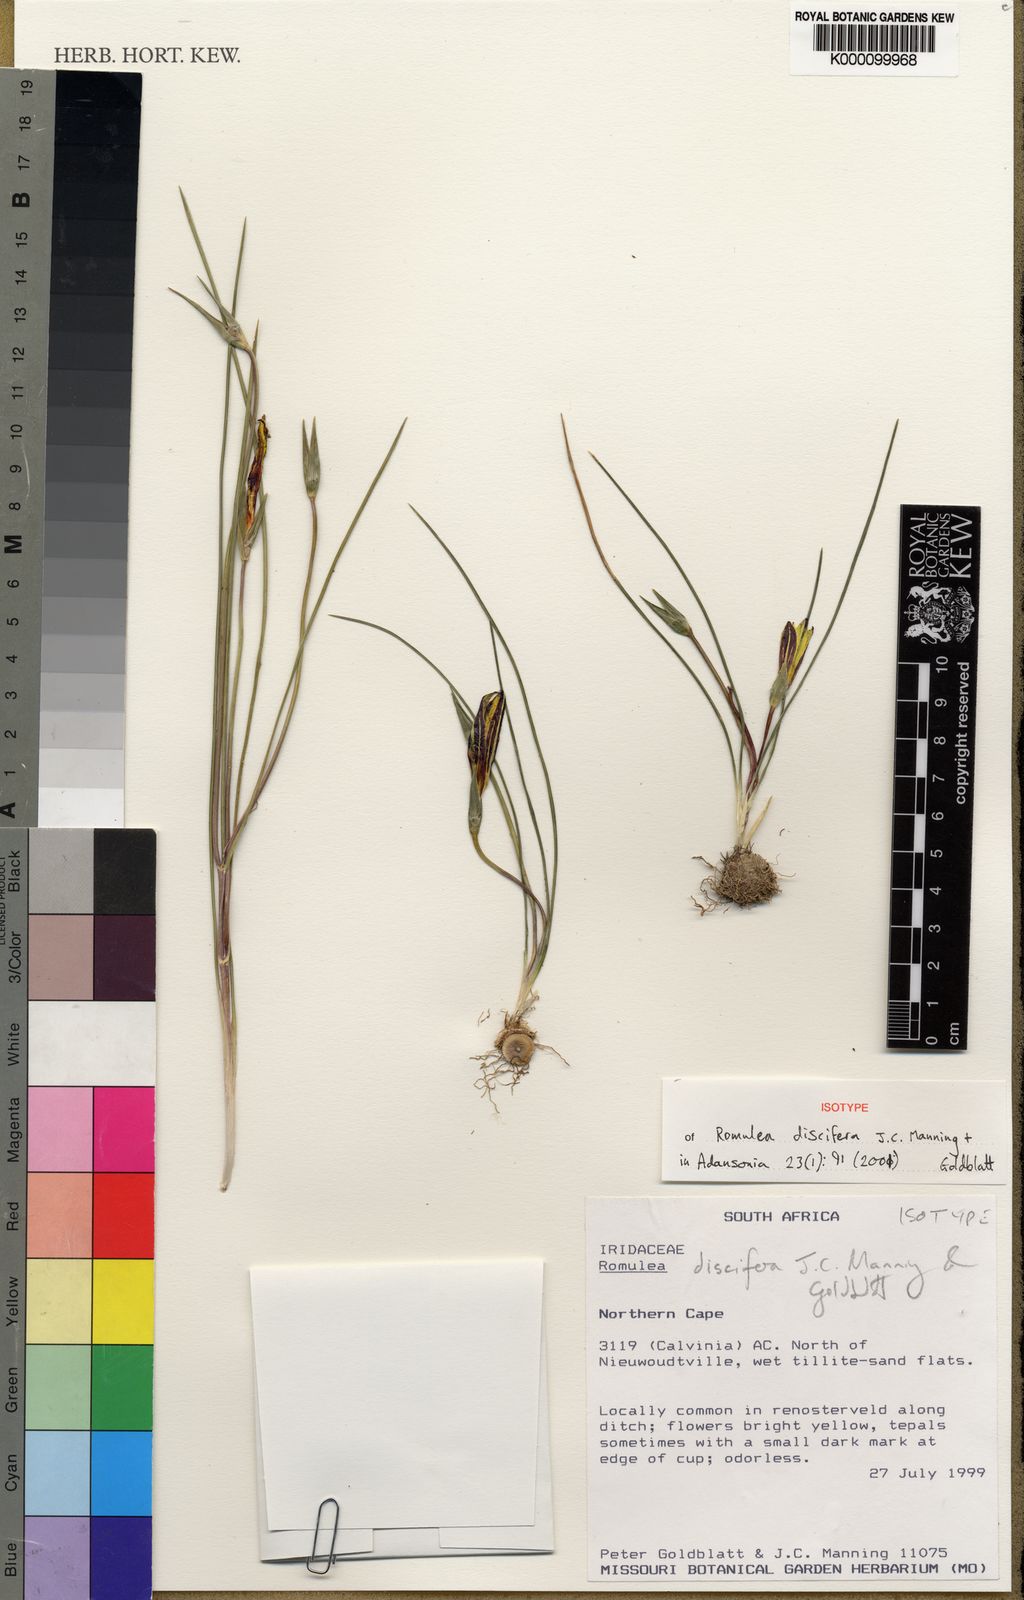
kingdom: Plantae
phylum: Tracheophyta
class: Liliopsida
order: Asparagales
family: Iridaceae
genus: Romulea
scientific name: Romulea discifera
